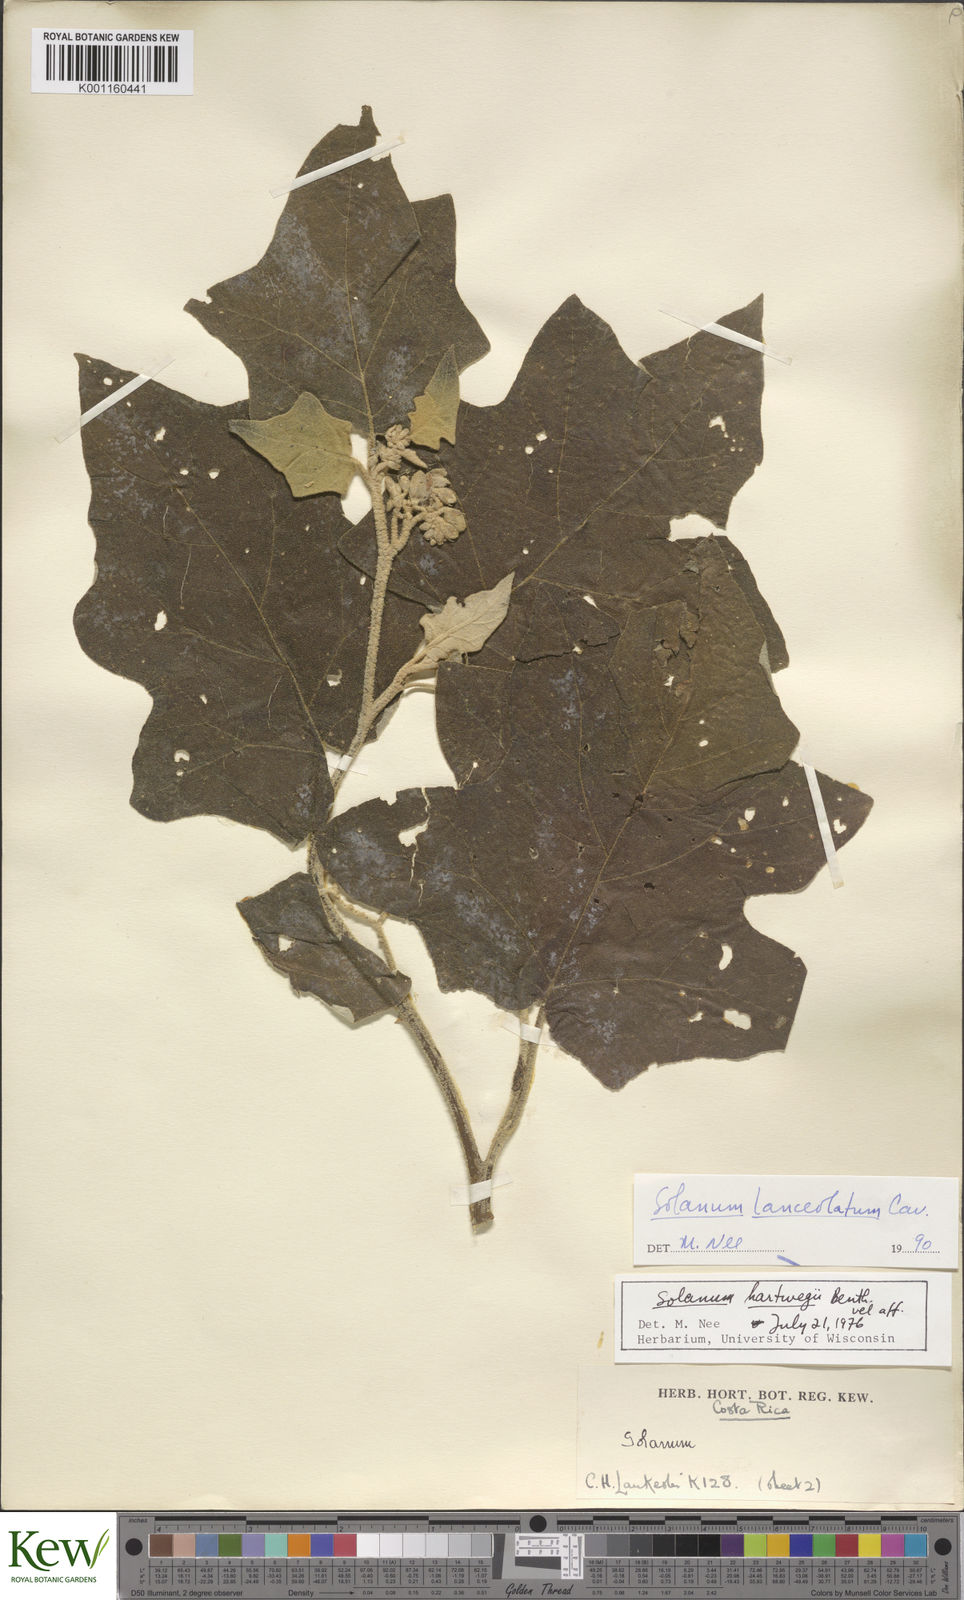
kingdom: Plantae
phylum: Tracheophyta
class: Magnoliopsida
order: Solanales
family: Solanaceae
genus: Solanum
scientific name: Solanum lanceolatum
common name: Orangeberry nightshade
